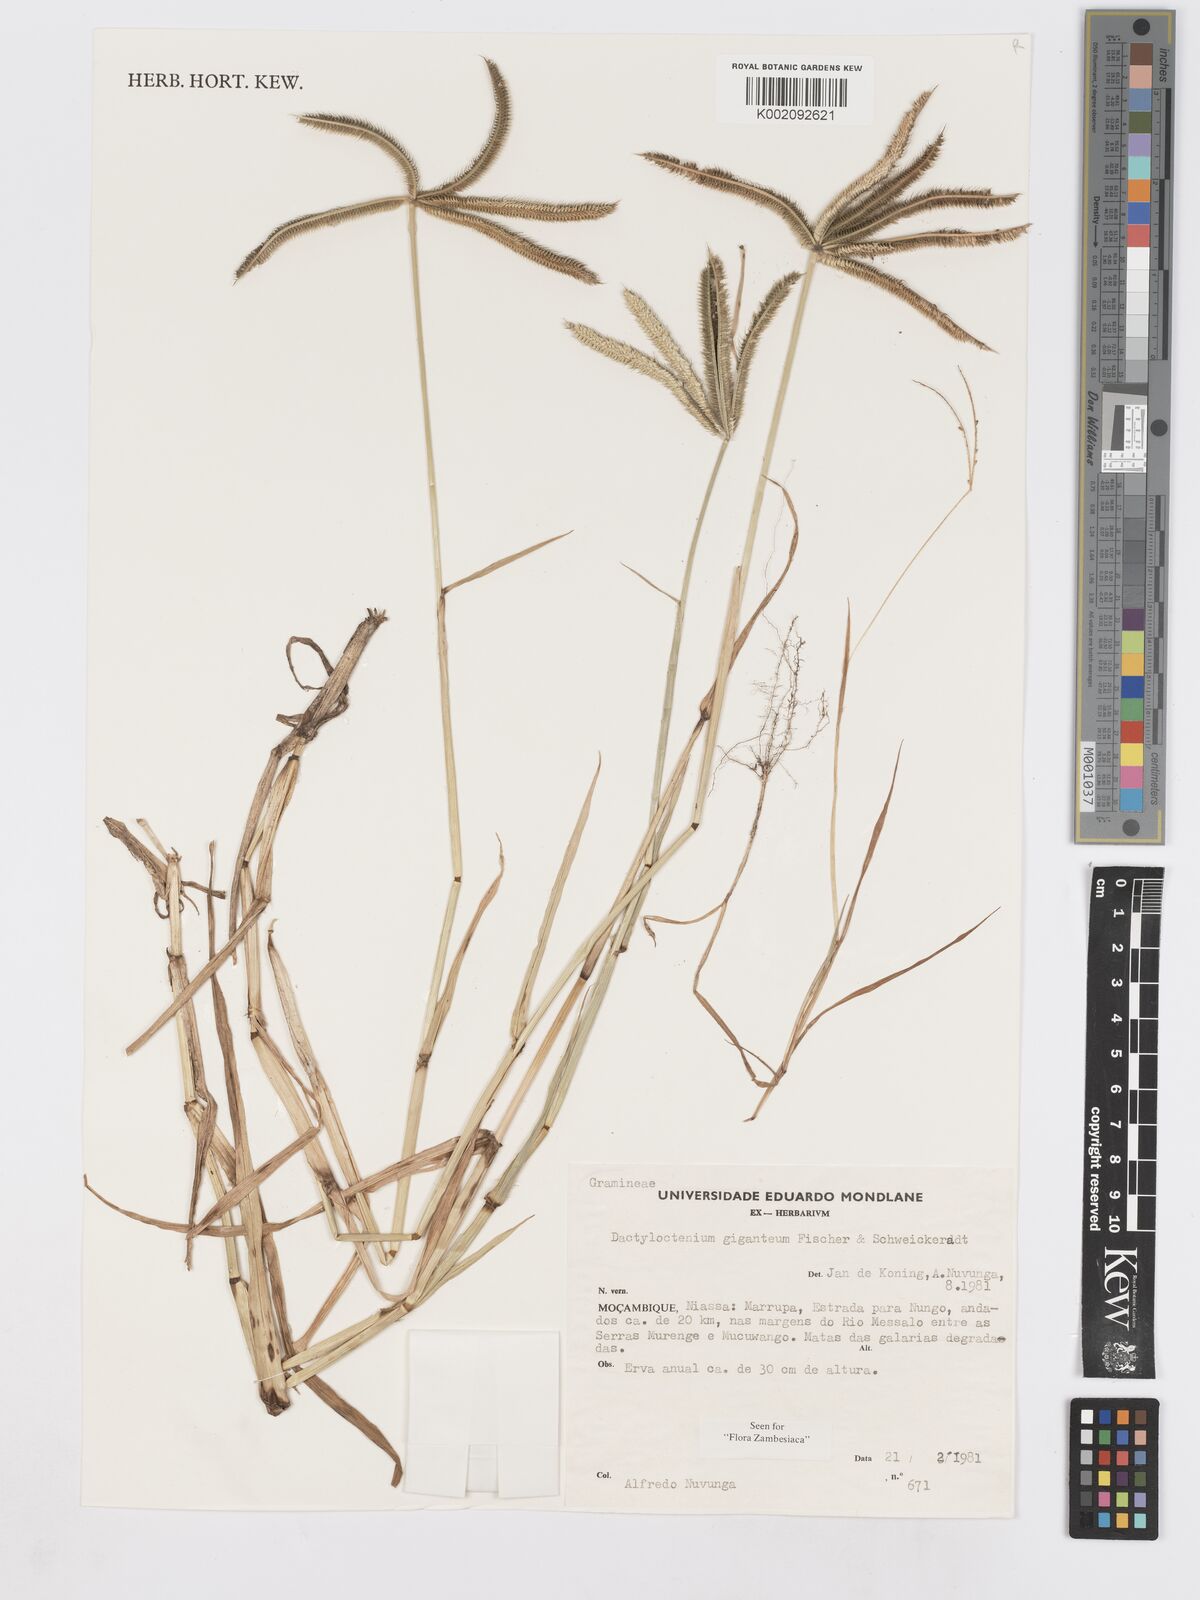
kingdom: Plantae
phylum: Tracheophyta
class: Liliopsida
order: Poales
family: Poaceae
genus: Dactyloctenium
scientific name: Dactyloctenium giganteum
